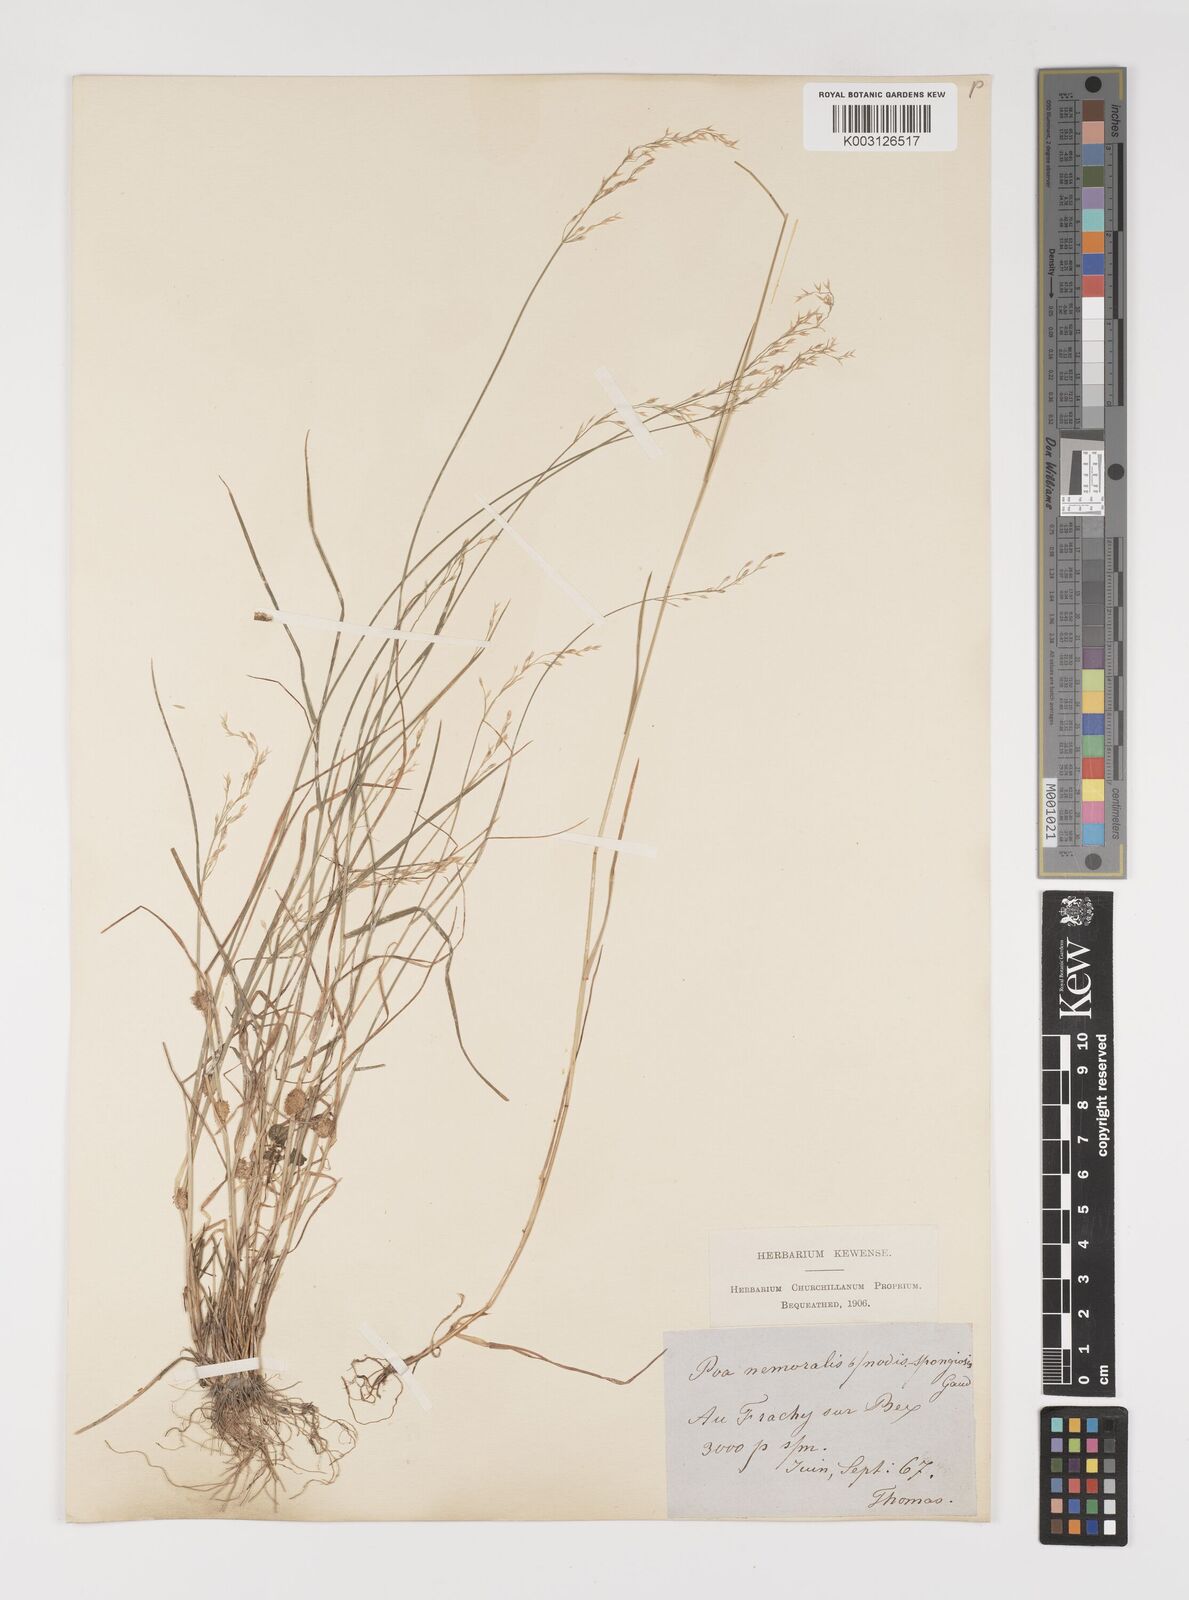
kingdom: Plantae
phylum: Tracheophyta
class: Liliopsida
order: Poales
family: Poaceae
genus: Poa
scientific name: Poa nemoralis
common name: Wood bluegrass
